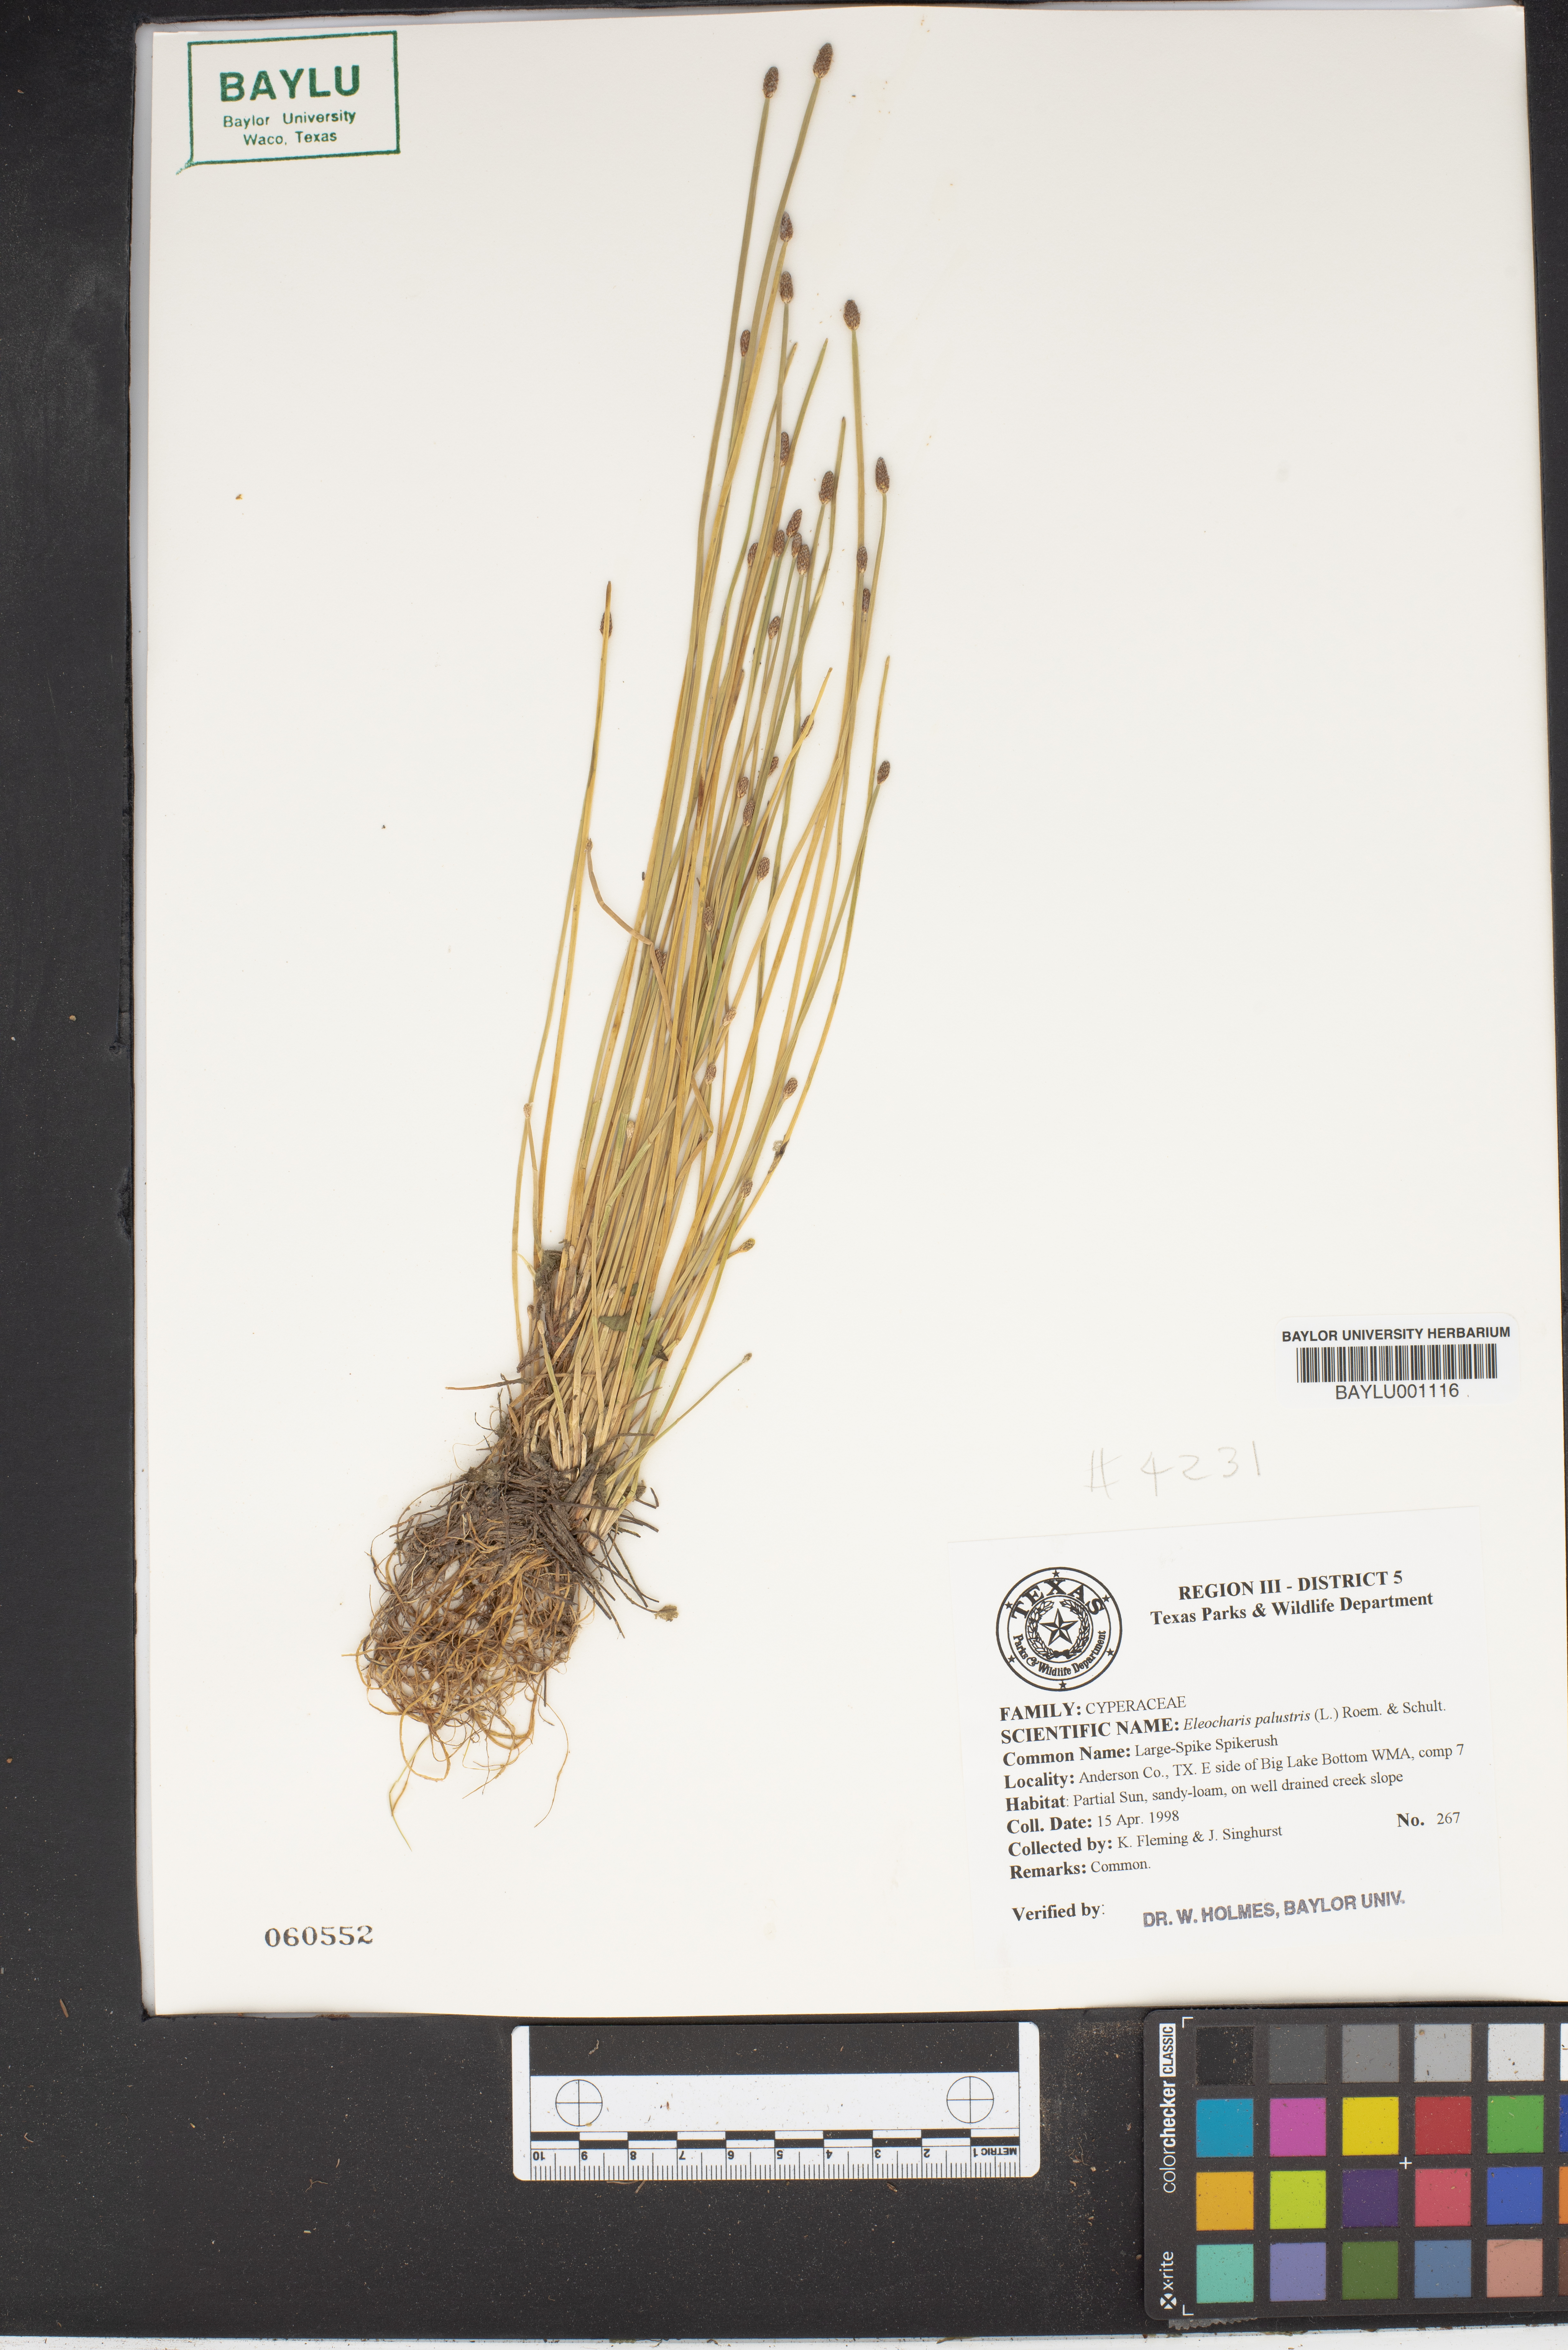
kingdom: Plantae
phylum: Tracheophyta
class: Liliopsida
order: Poales
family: Cyperaceae
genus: Eleocharis
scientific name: Eleocharis palustris
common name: Common spike-rush
